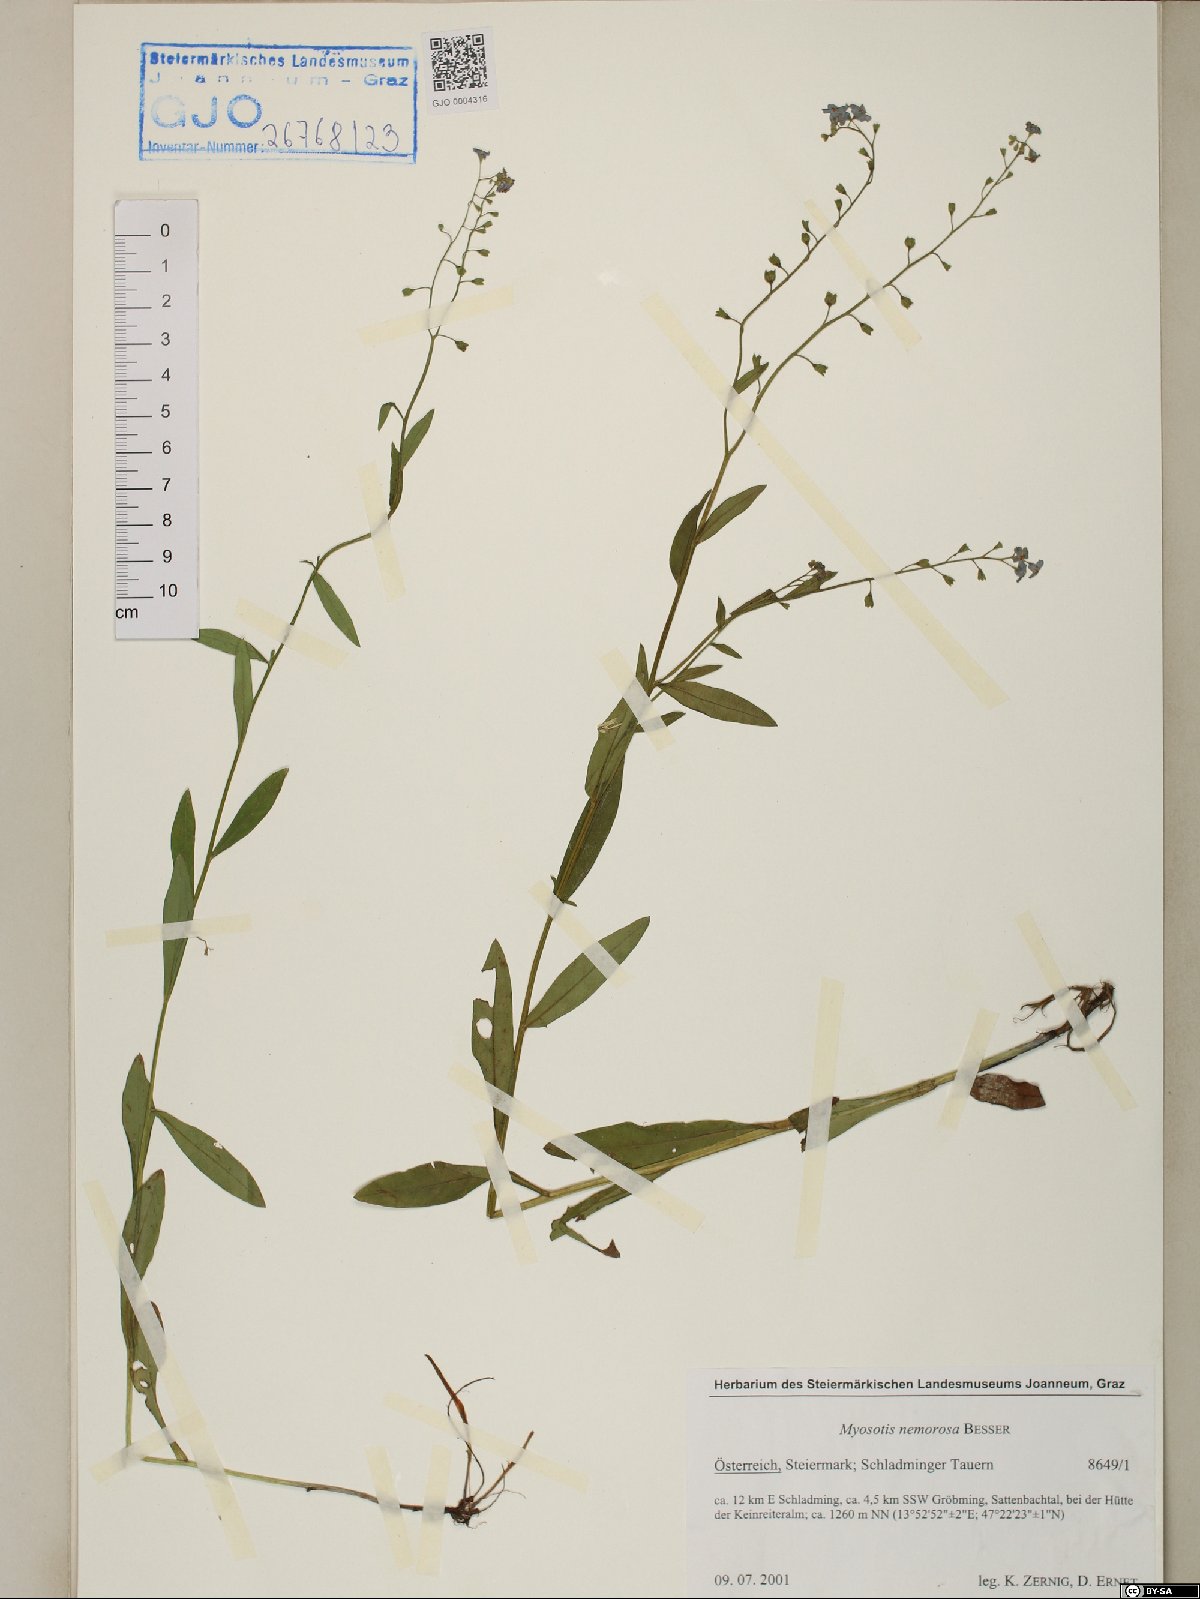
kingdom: Plantae
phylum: Tracheophyta
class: Magnoliopsida
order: Boraginales
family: Boraginaceae
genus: Myosotis
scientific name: Myosotis nemorosa
